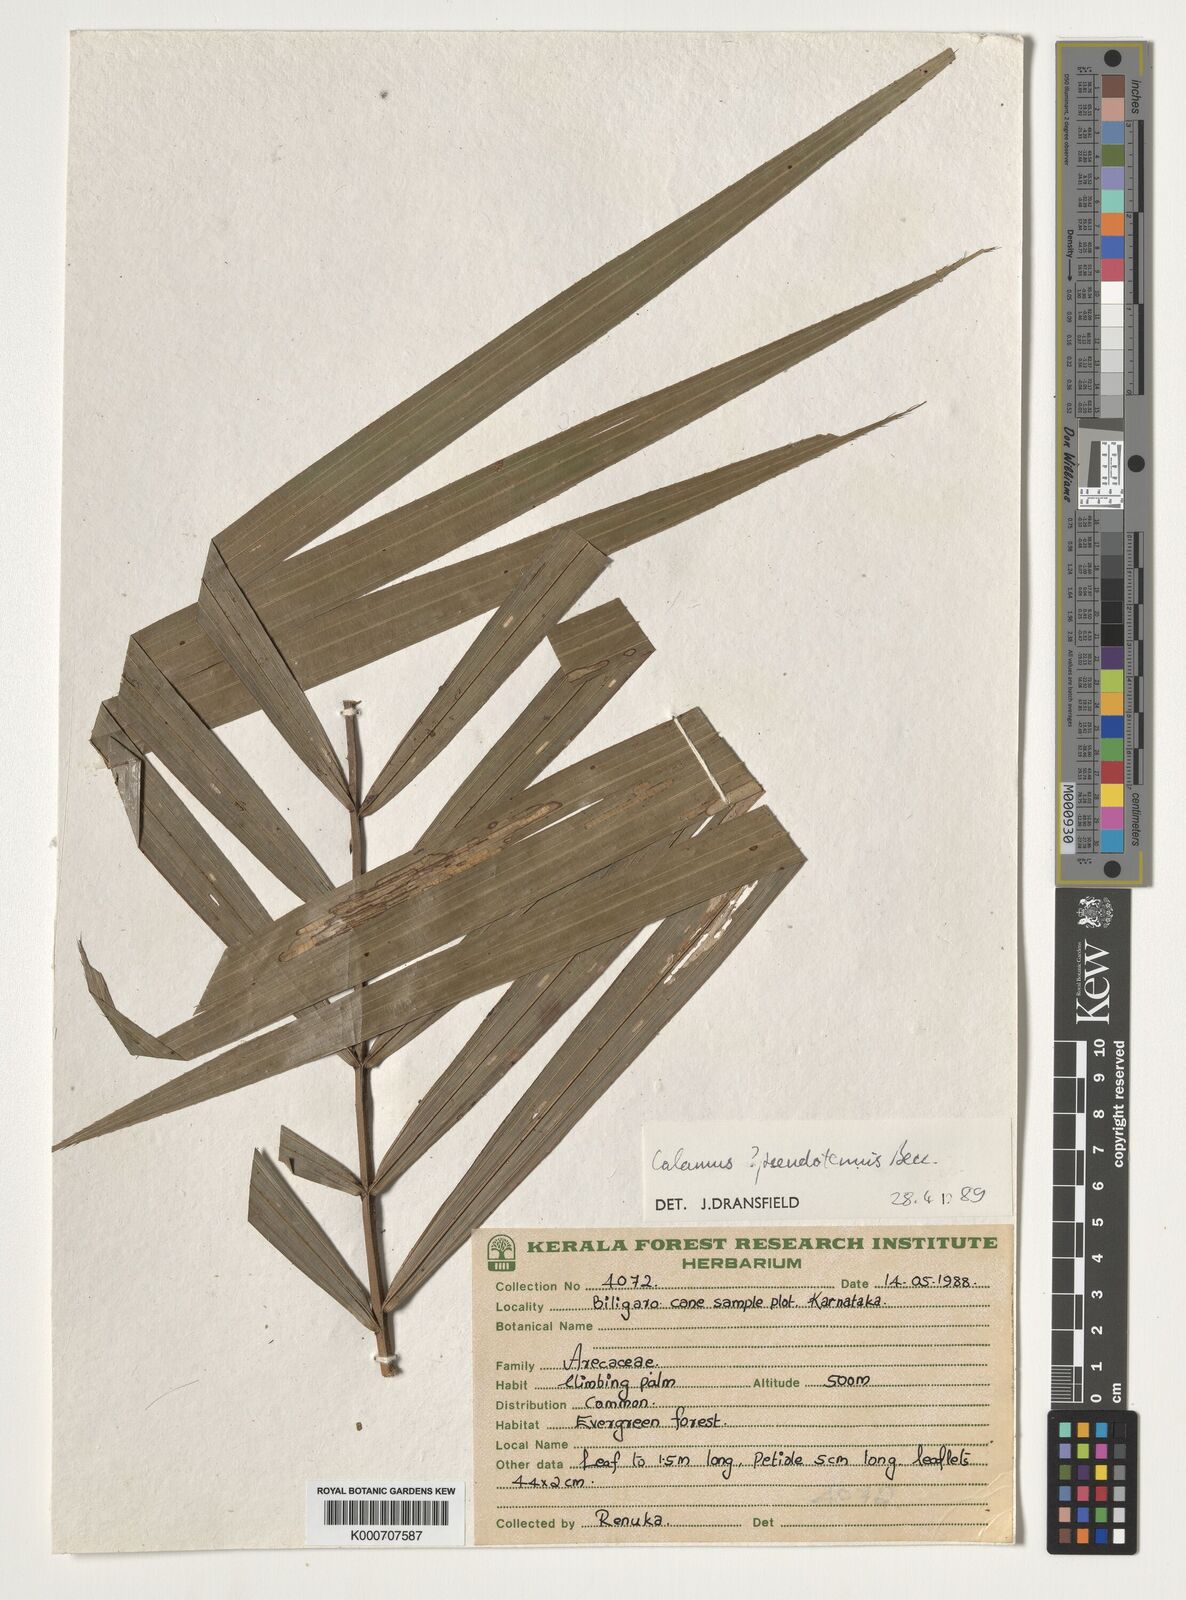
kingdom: Plantae
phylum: Tracheophyta
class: Liliopsida
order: Arecales
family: Arecaceae
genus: Calamus
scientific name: Calamus pseudotenuis
